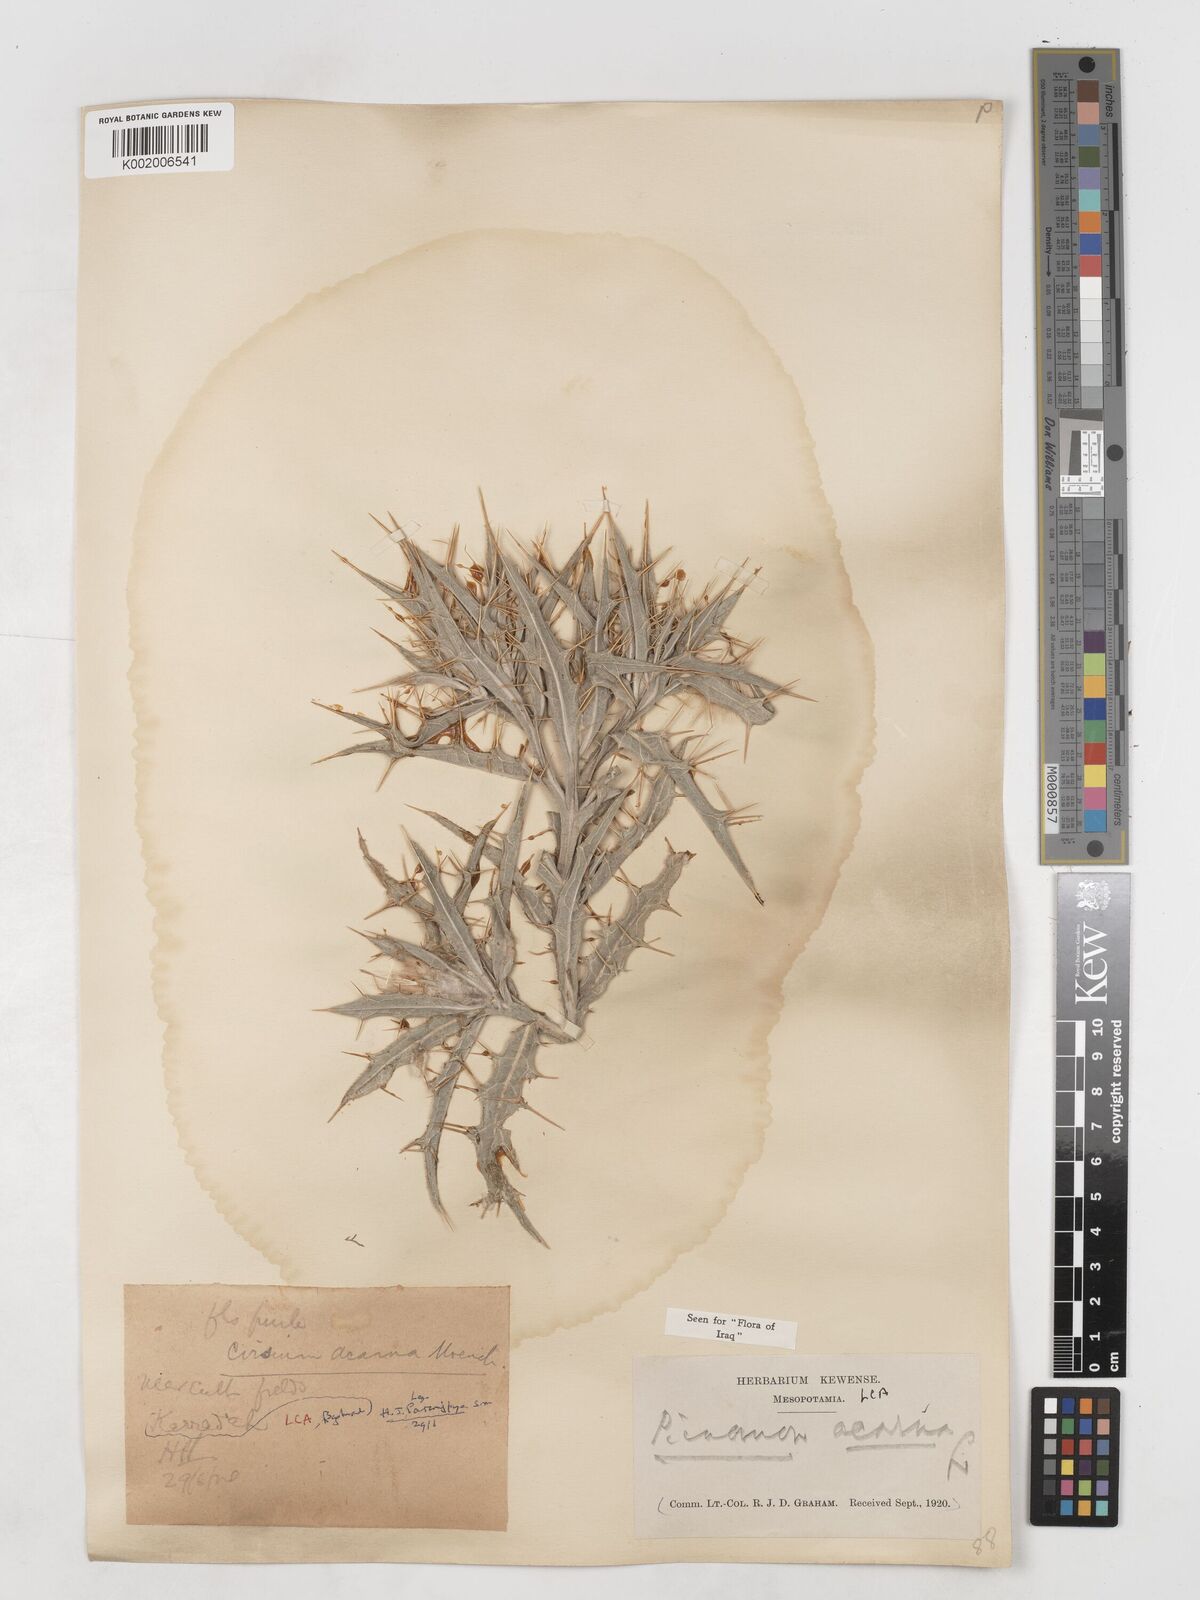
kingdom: Plantae
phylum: Tracheophyta
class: Magnoliopsida
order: Asterales
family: Asteraceae
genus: Picnomon
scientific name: Picnomon acarna
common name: Soldier thistle
